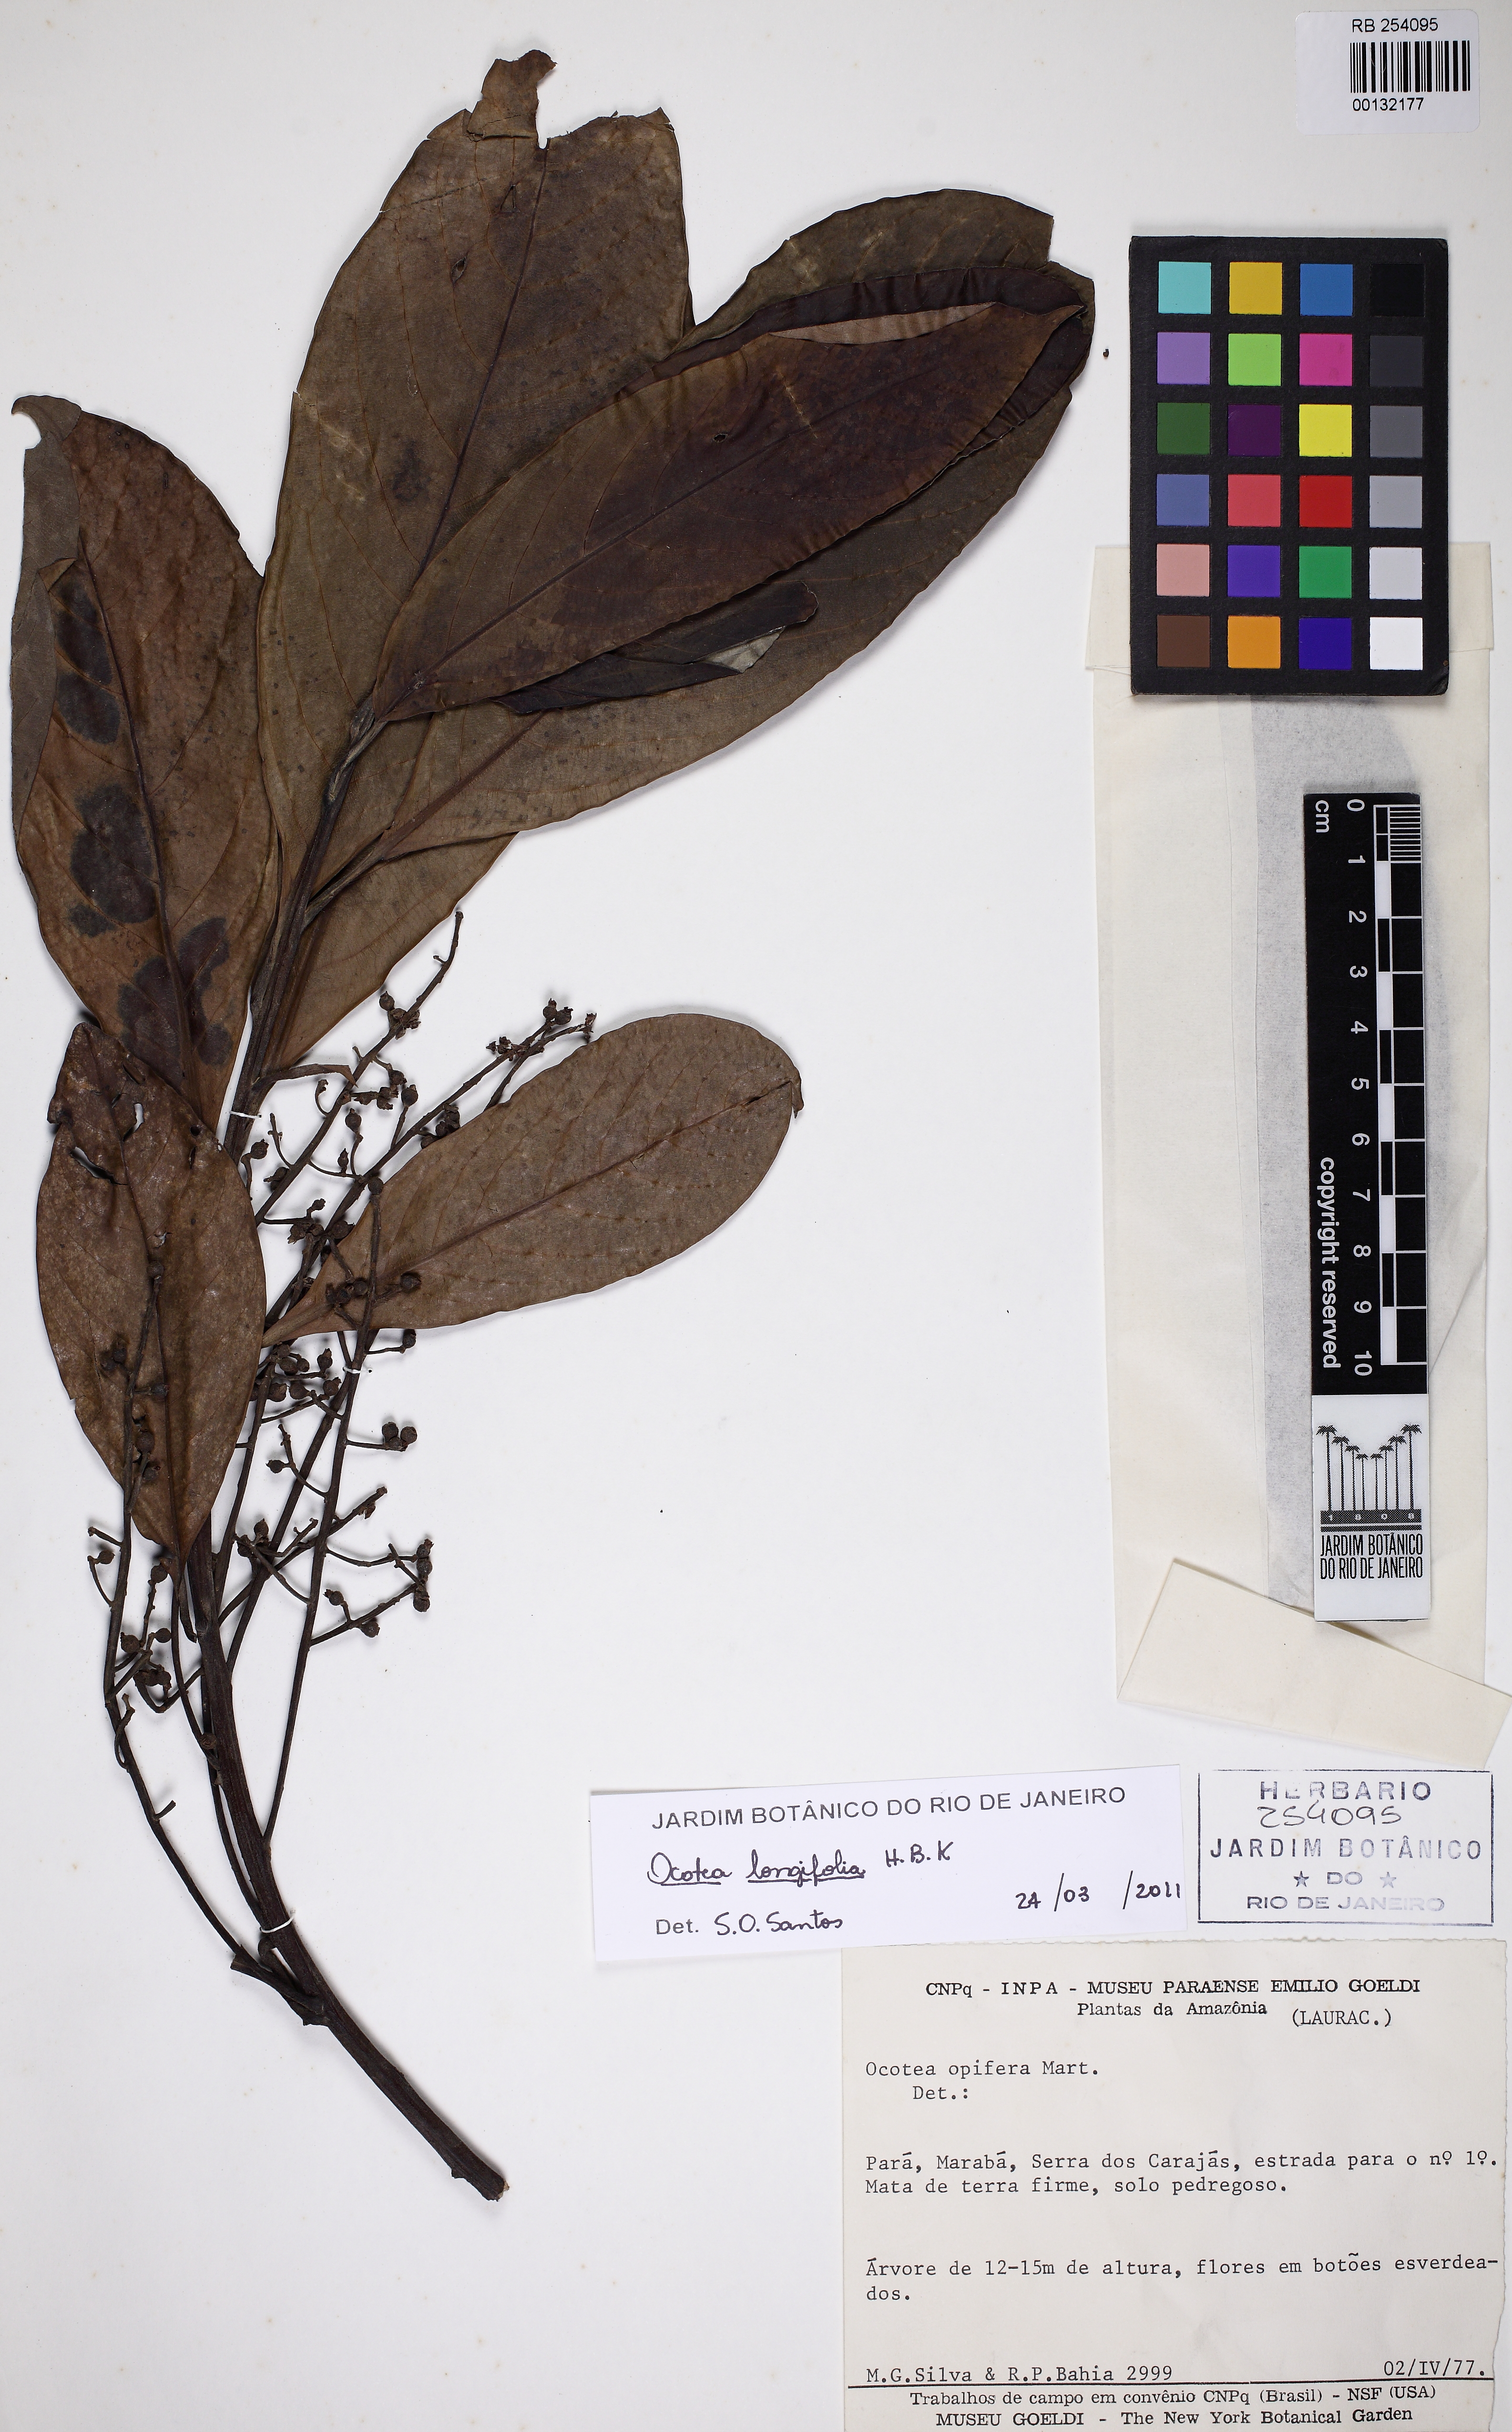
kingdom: Plantae
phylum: Tracheophyta
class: Magnoliopsida
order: Laurales
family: Lauraceae
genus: Mespilodaphne
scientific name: Mespilodaphne opifera
